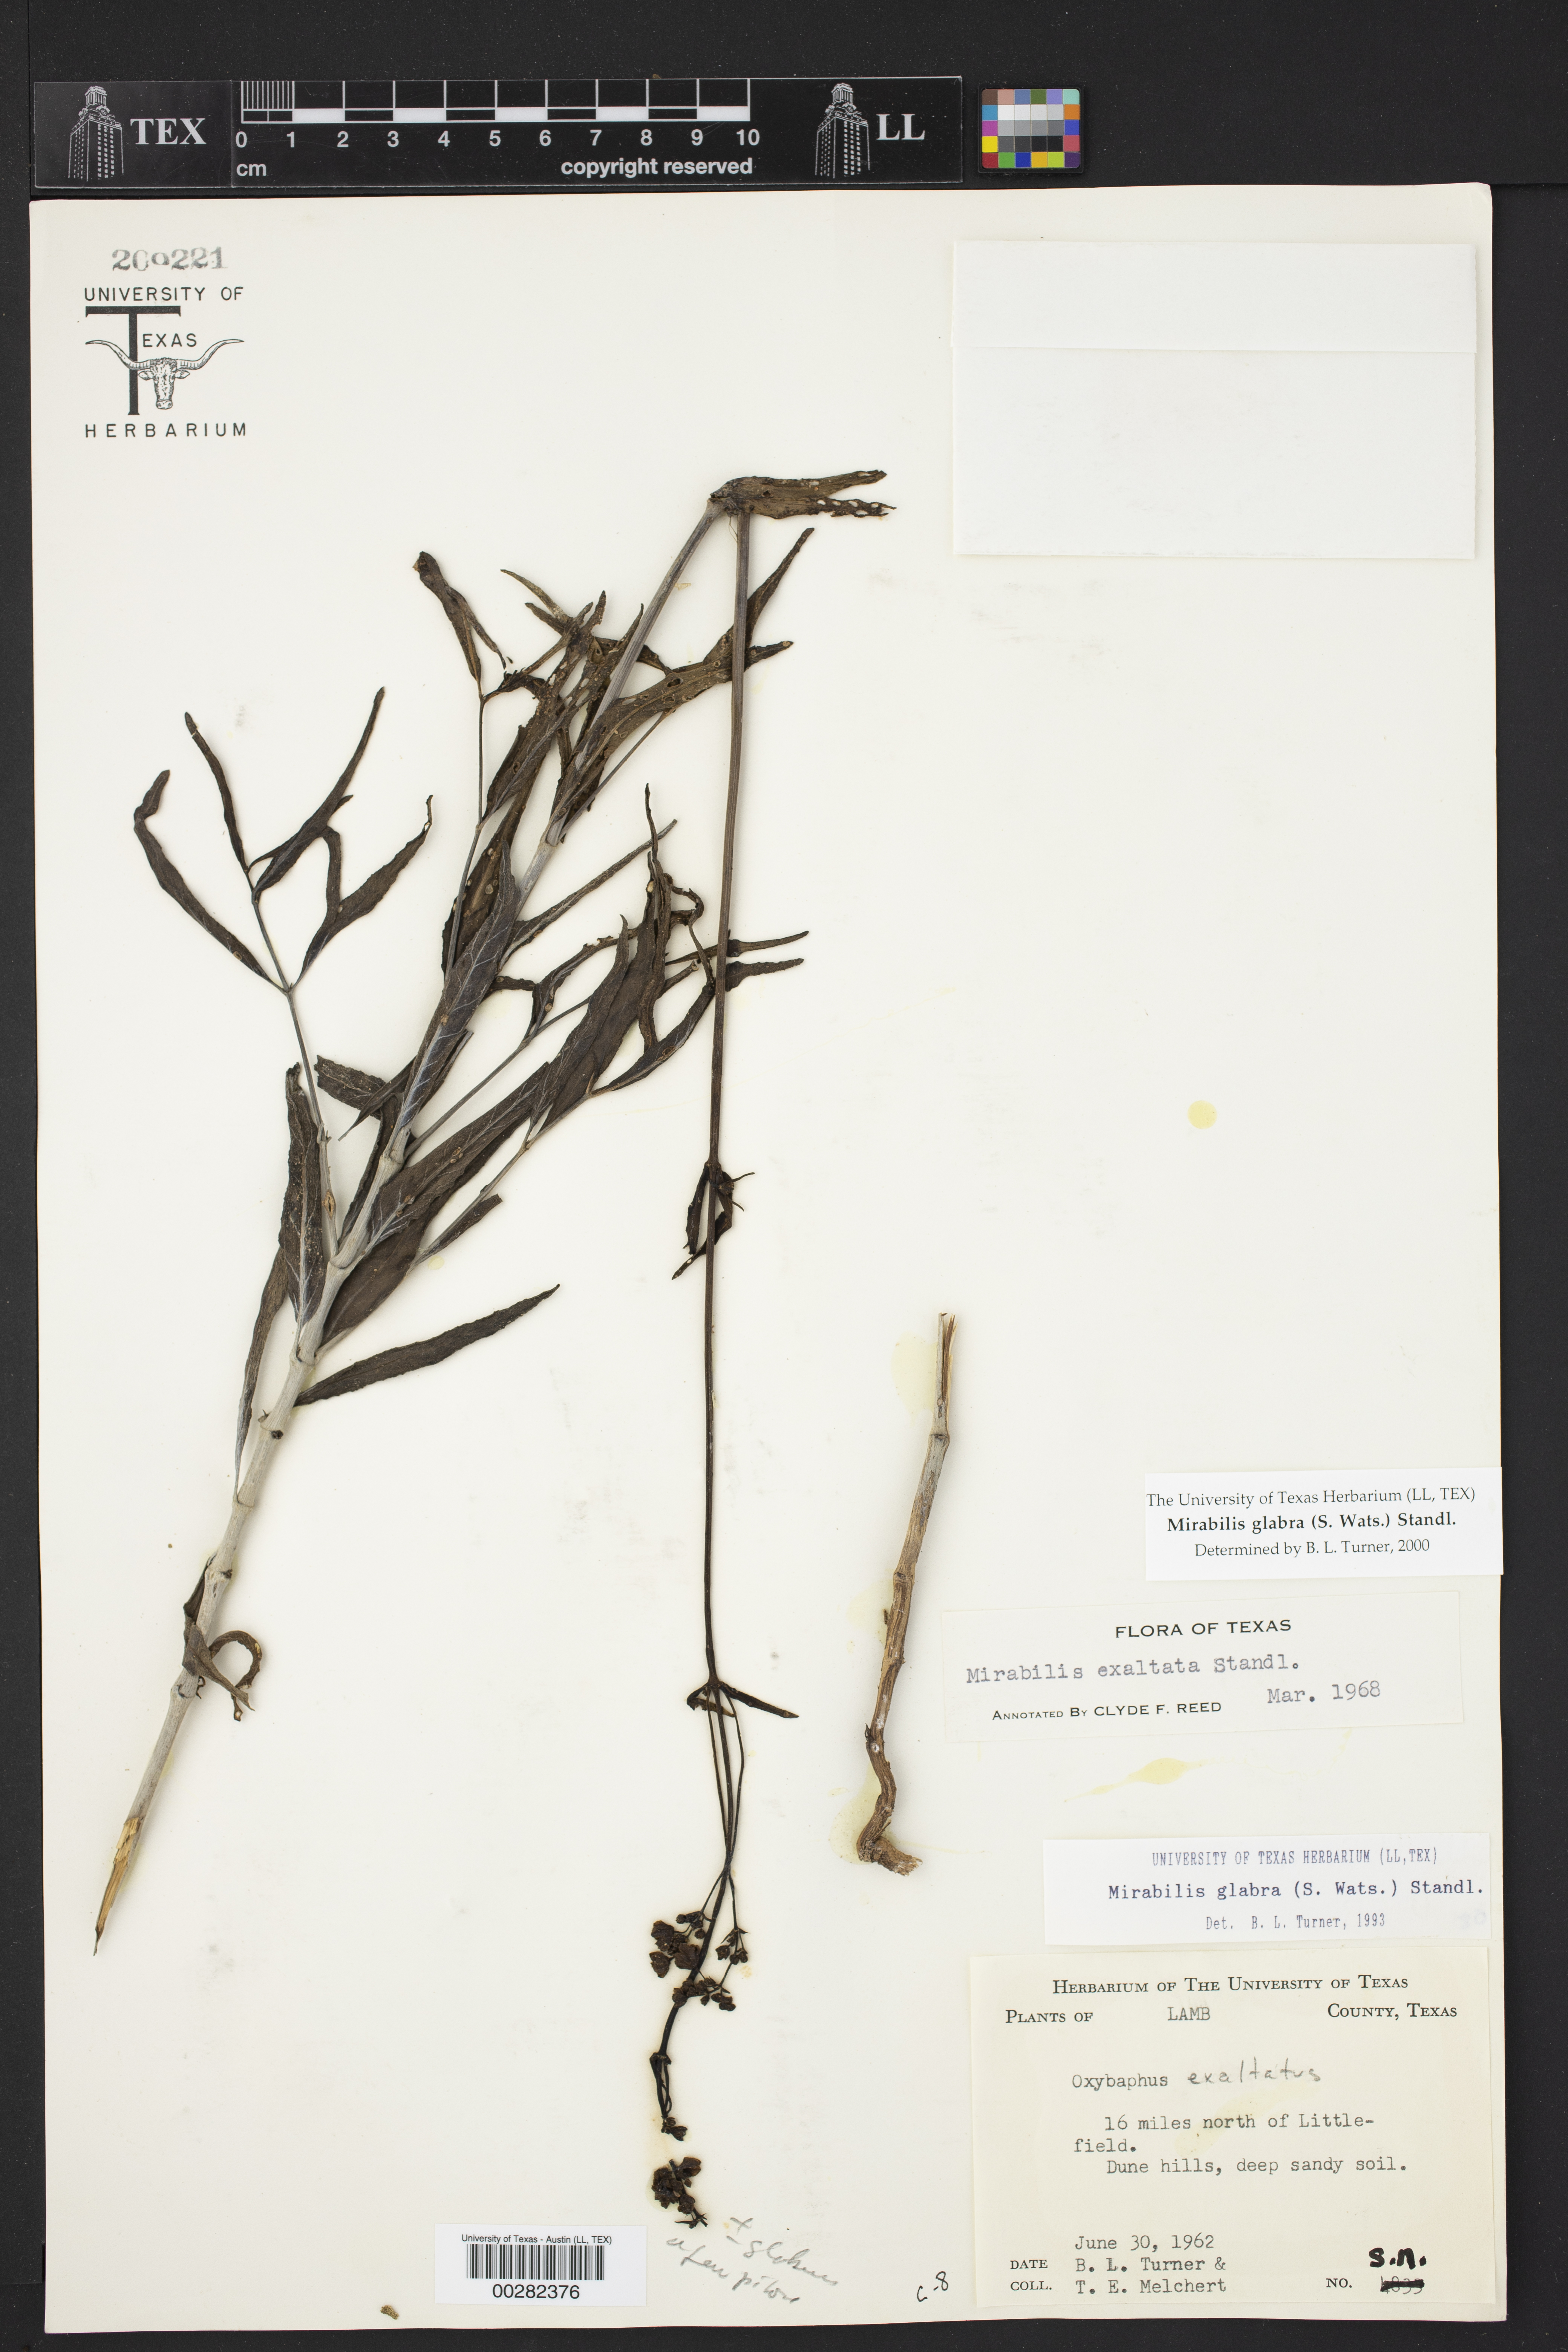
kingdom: Plantae
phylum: Tracheophyta
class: Magnoliopsida
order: Caryophyllales
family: Nyctaginaceae
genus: Mirabilis
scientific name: Mirabilis glabra
